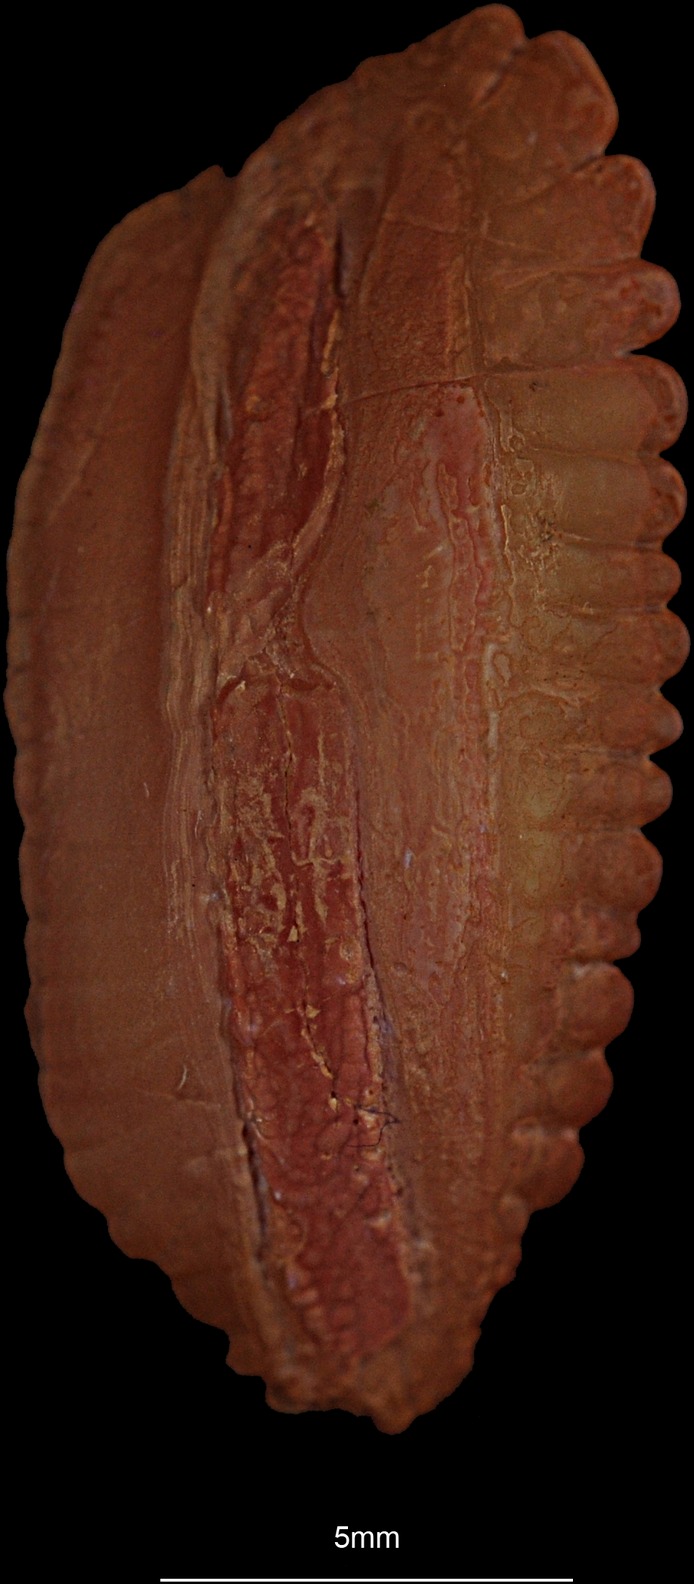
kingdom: Animalia
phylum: Chordata
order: Gadiformes
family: Gadidae
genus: Gadus
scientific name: Gadus morhua
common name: Atlantic cod
